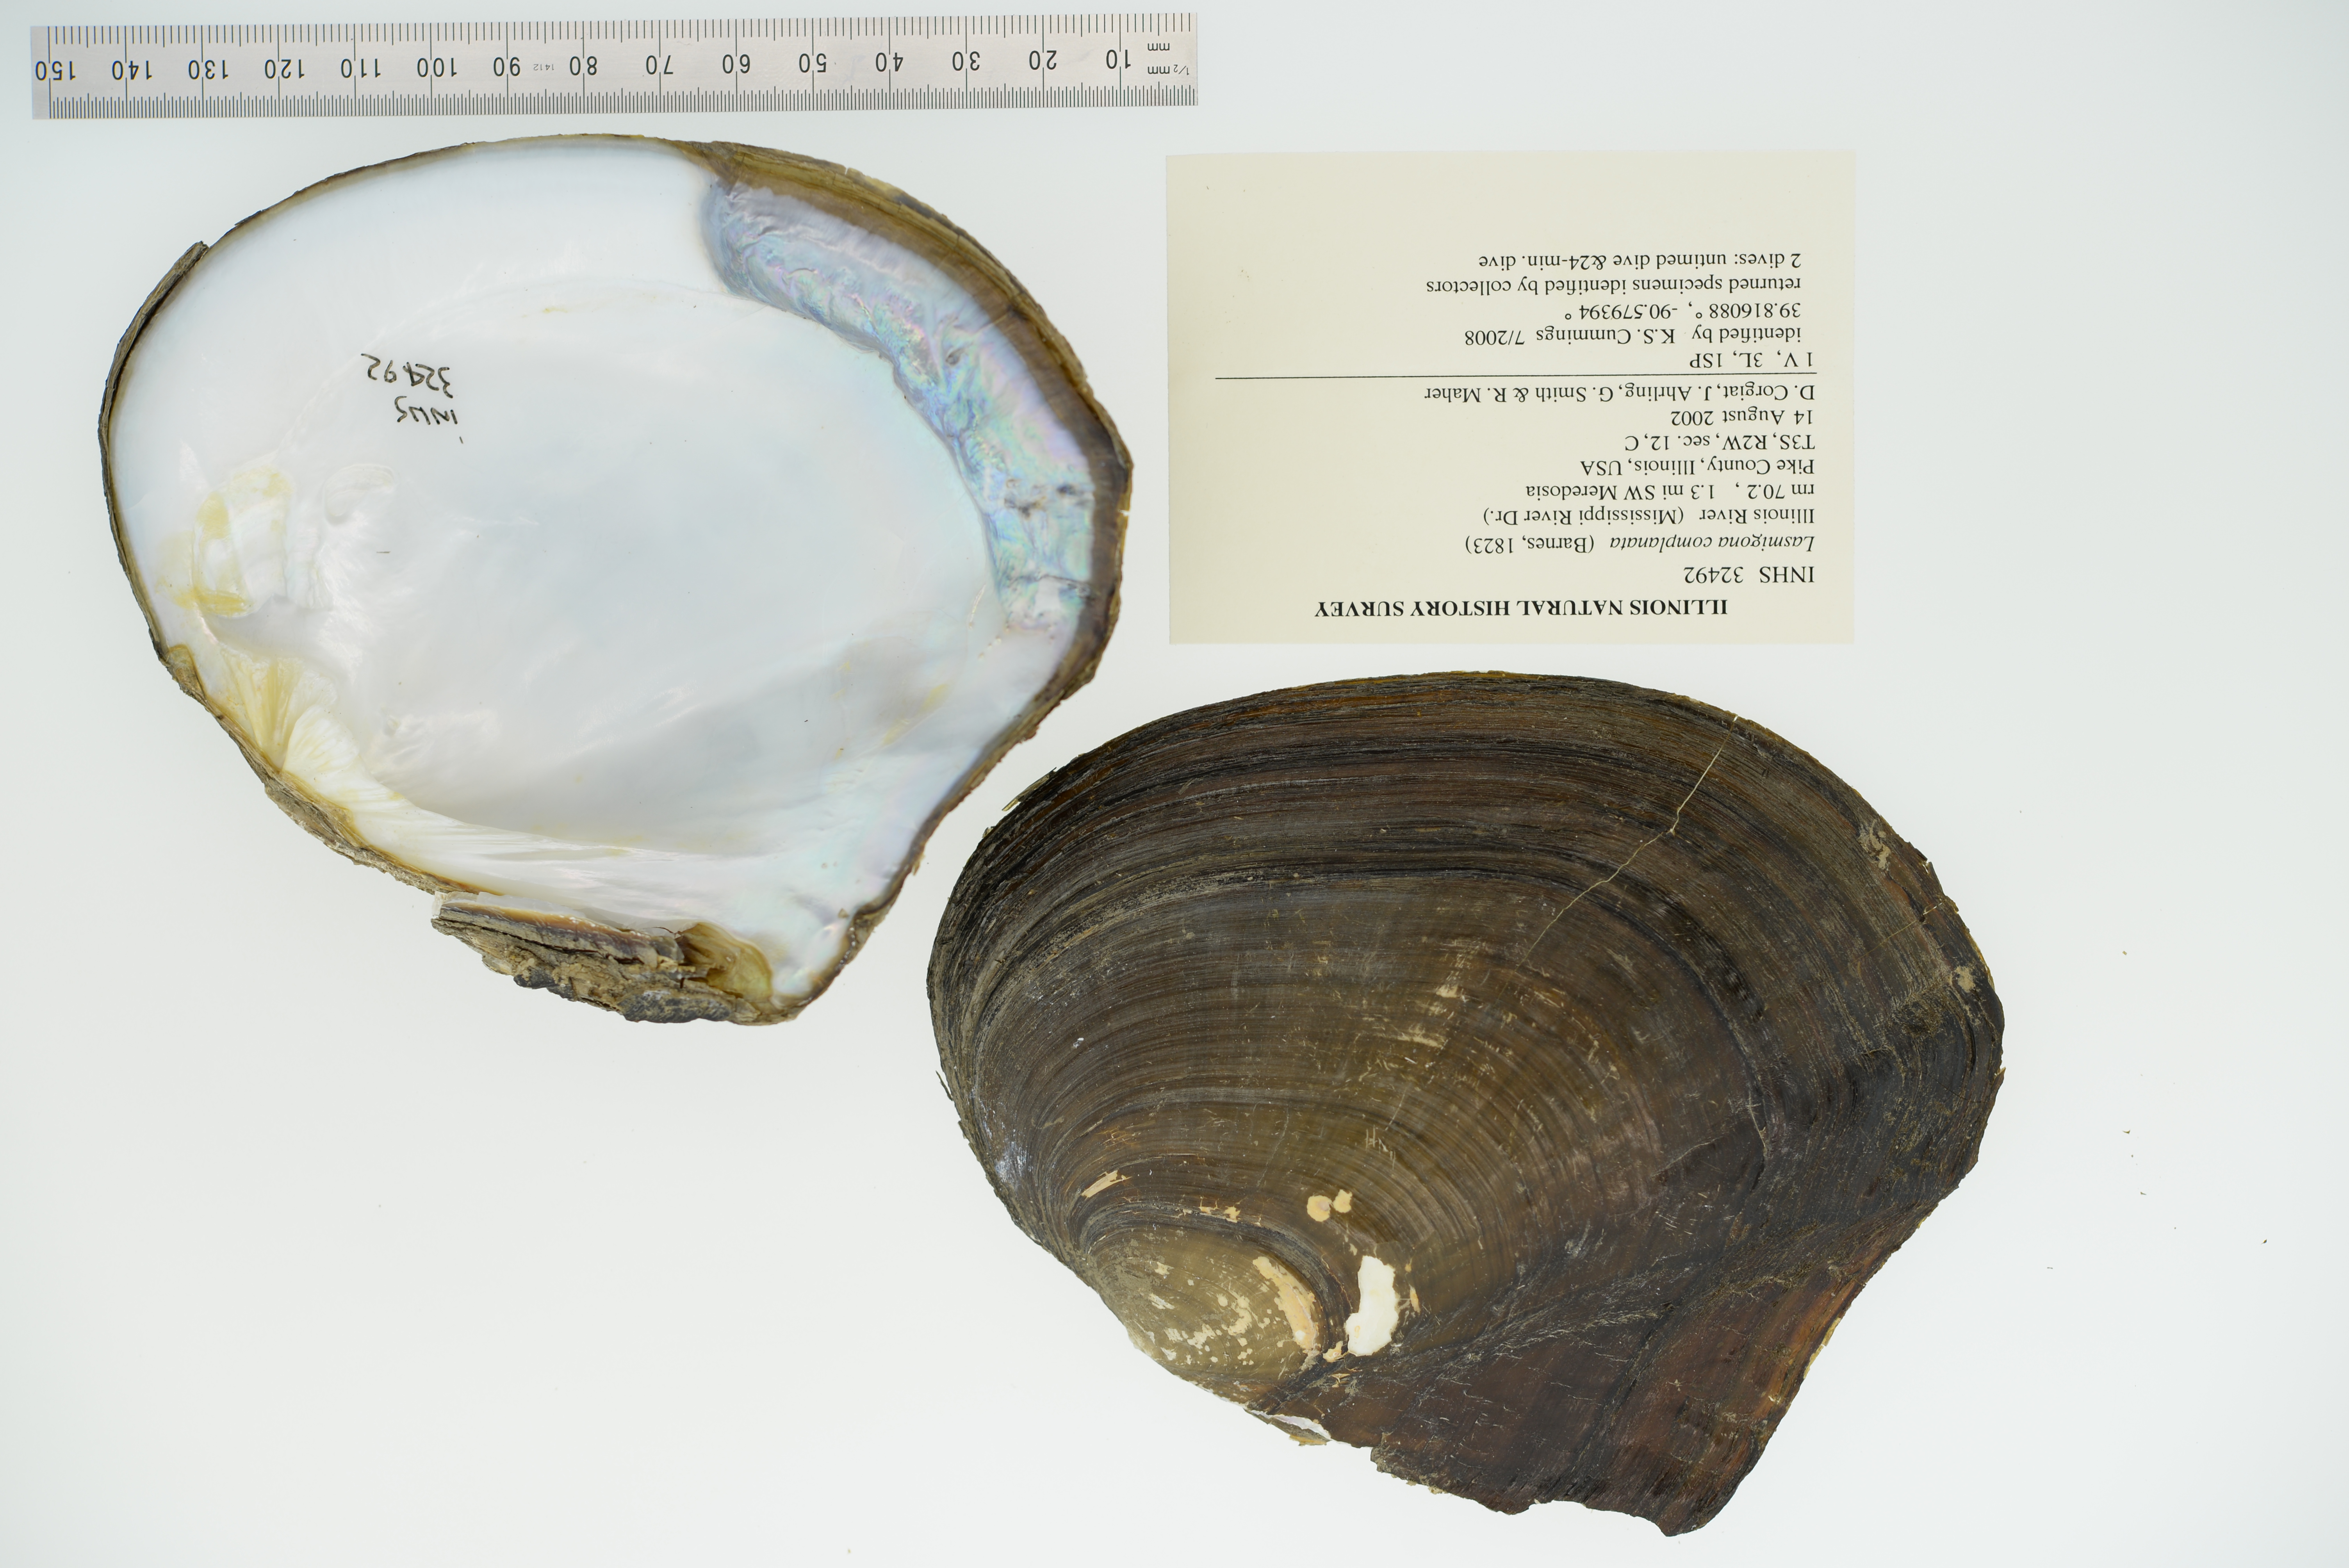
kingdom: Animalia
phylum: Mollusca
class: Bivalvia
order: Unionida
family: Unionidae
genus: Lasmigona
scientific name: Lasmigona complanata
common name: White heelsplitter
